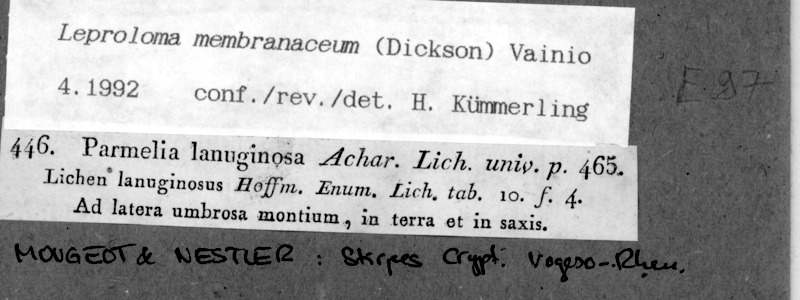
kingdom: Fungi
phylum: Ascomycota
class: Lecanoromycetes
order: Lecanorales
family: Stereocaulaceae
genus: Lepraria
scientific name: Lepraria membranacea
